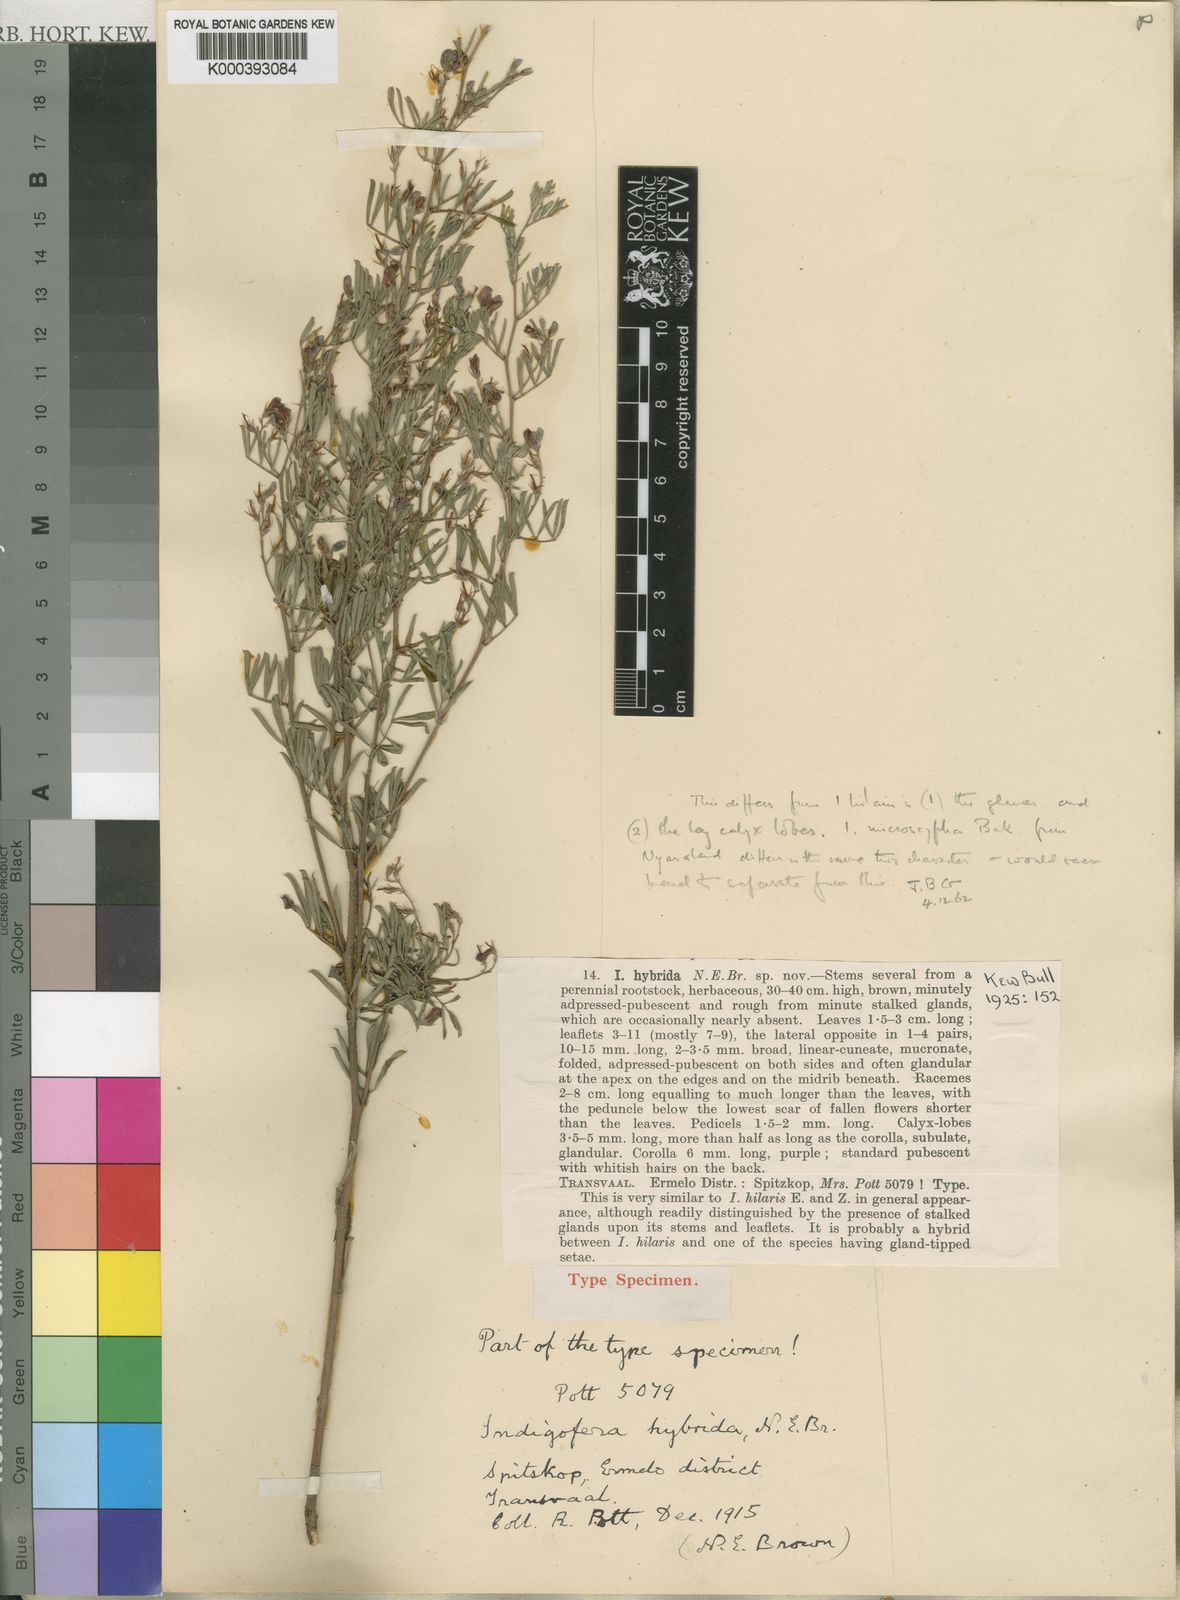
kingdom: Plantae
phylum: Tracheophyta
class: Magnoliopsida
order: Fabales
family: Fabaceae
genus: Indigofera
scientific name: Indigofera hybrida
